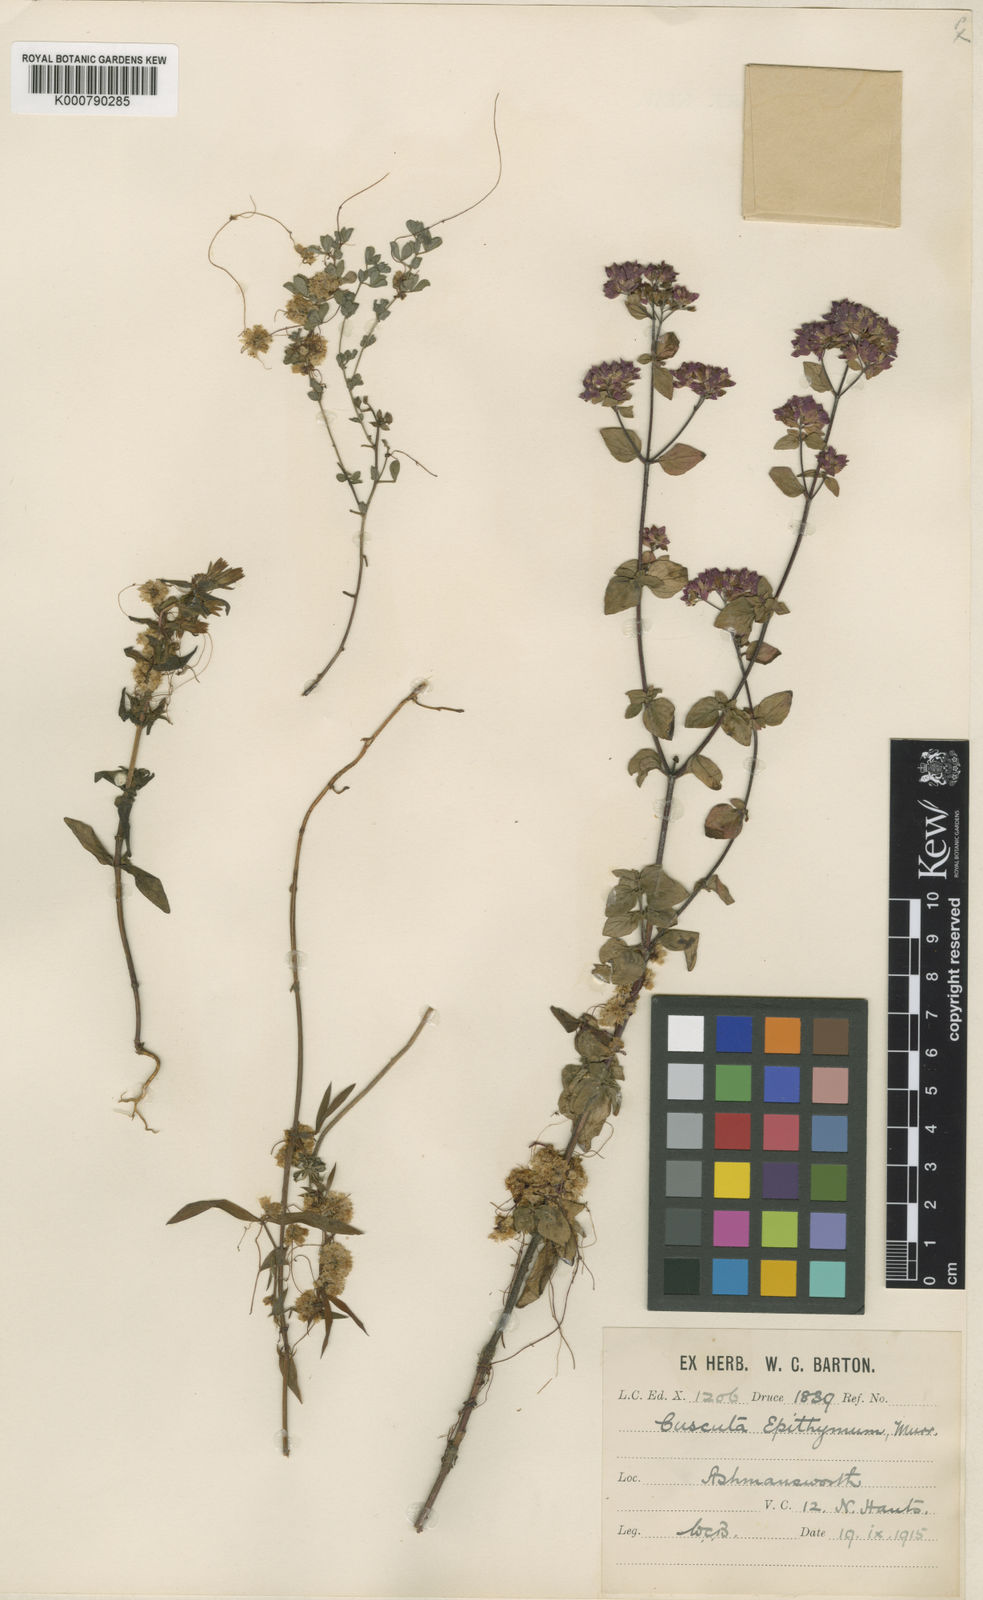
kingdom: Plantae
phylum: Tracheophyta
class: Magnoliopsida
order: Solanales
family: Convolvulaceae
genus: Cuscuta
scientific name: Cuscuta epithymum
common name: Clover dodder
